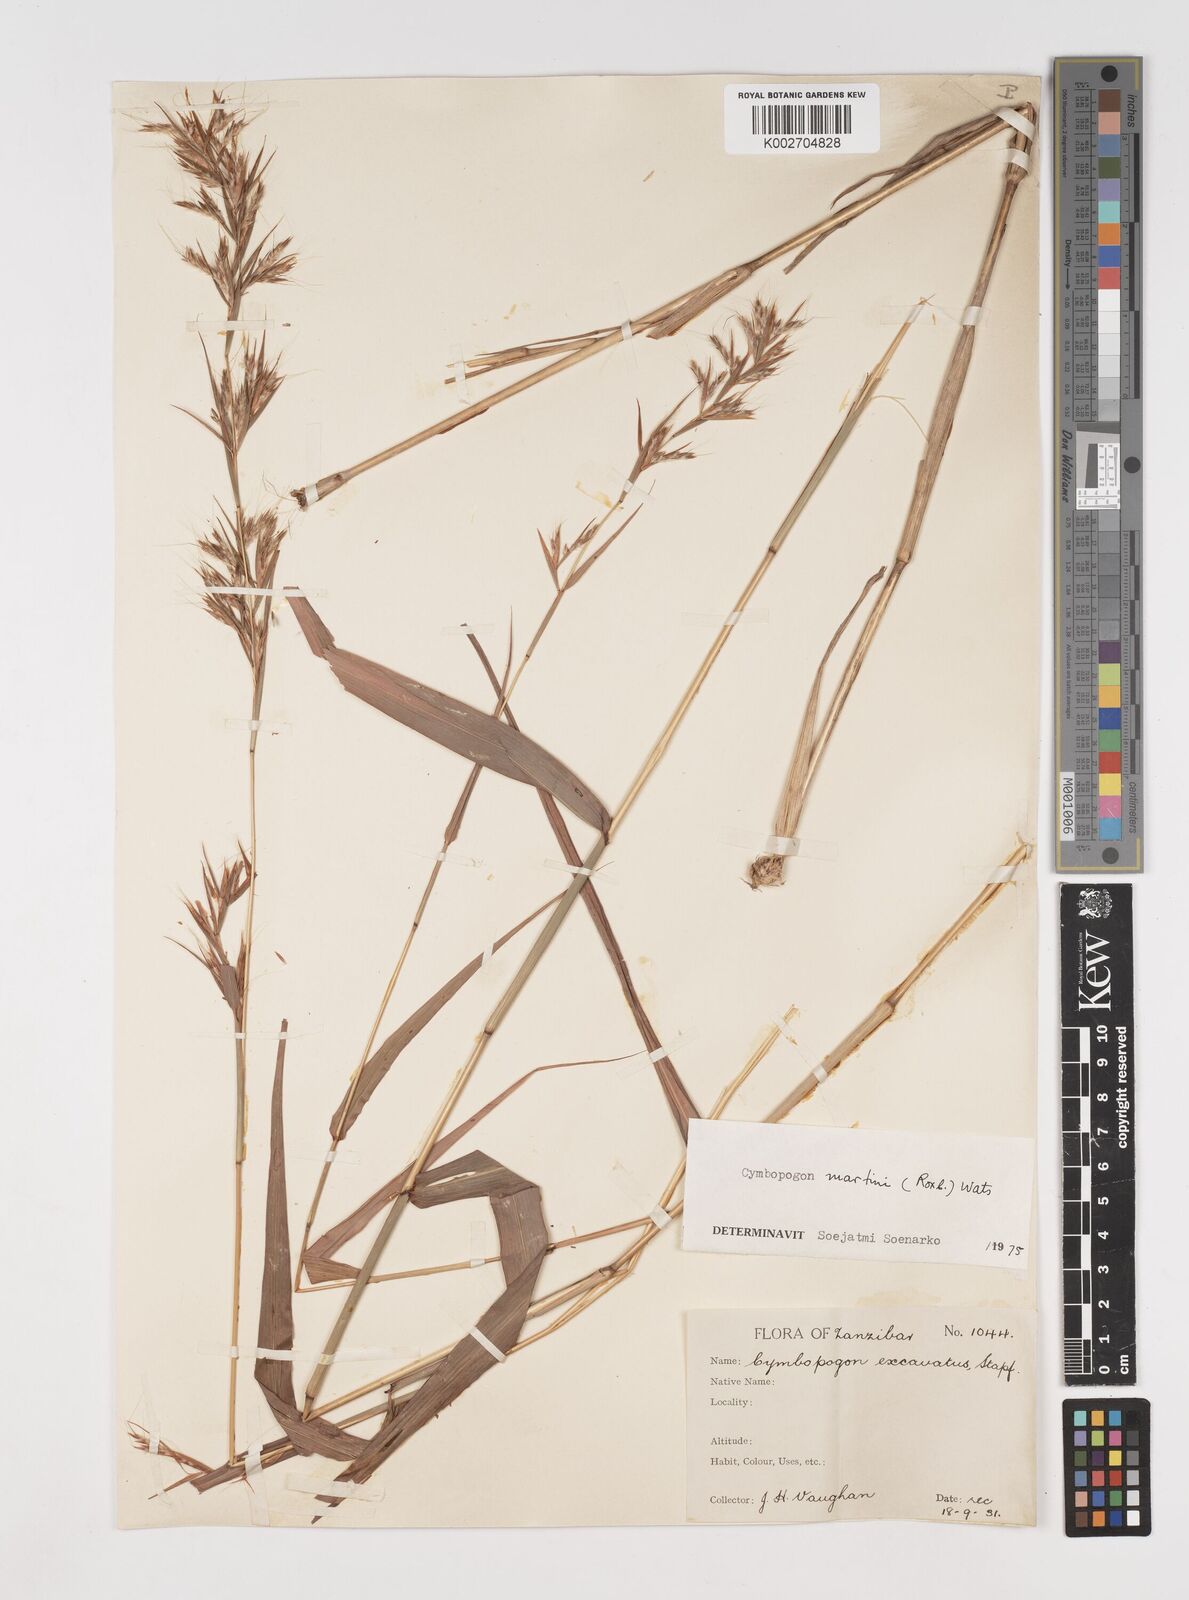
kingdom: Plantae
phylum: Tracheophyta
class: Liliopsida
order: Poales
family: Poaceae
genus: Cymbopogon
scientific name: Cymbopogon martini
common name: Ginger grass
